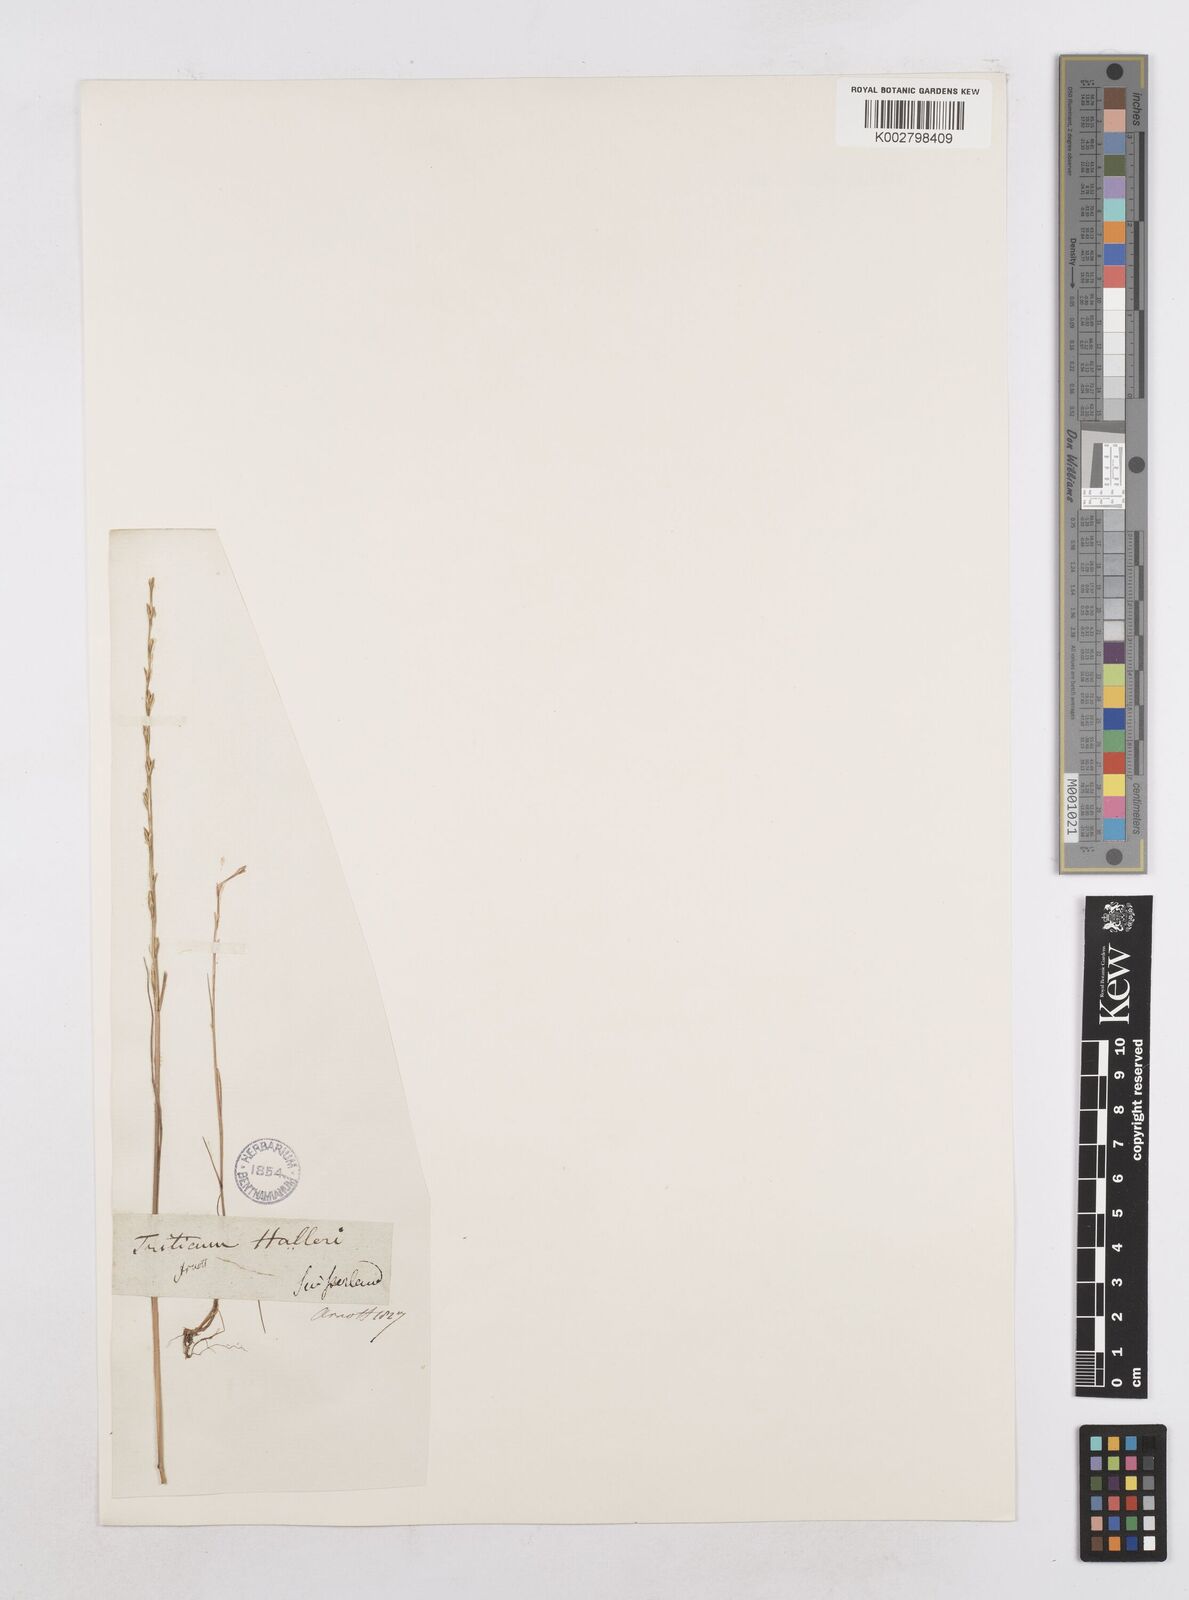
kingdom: Plantae
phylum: Tracheophyta
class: Liliopsida
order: Poales
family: Poaceae
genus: Festuca
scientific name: Festuca lachenalii
